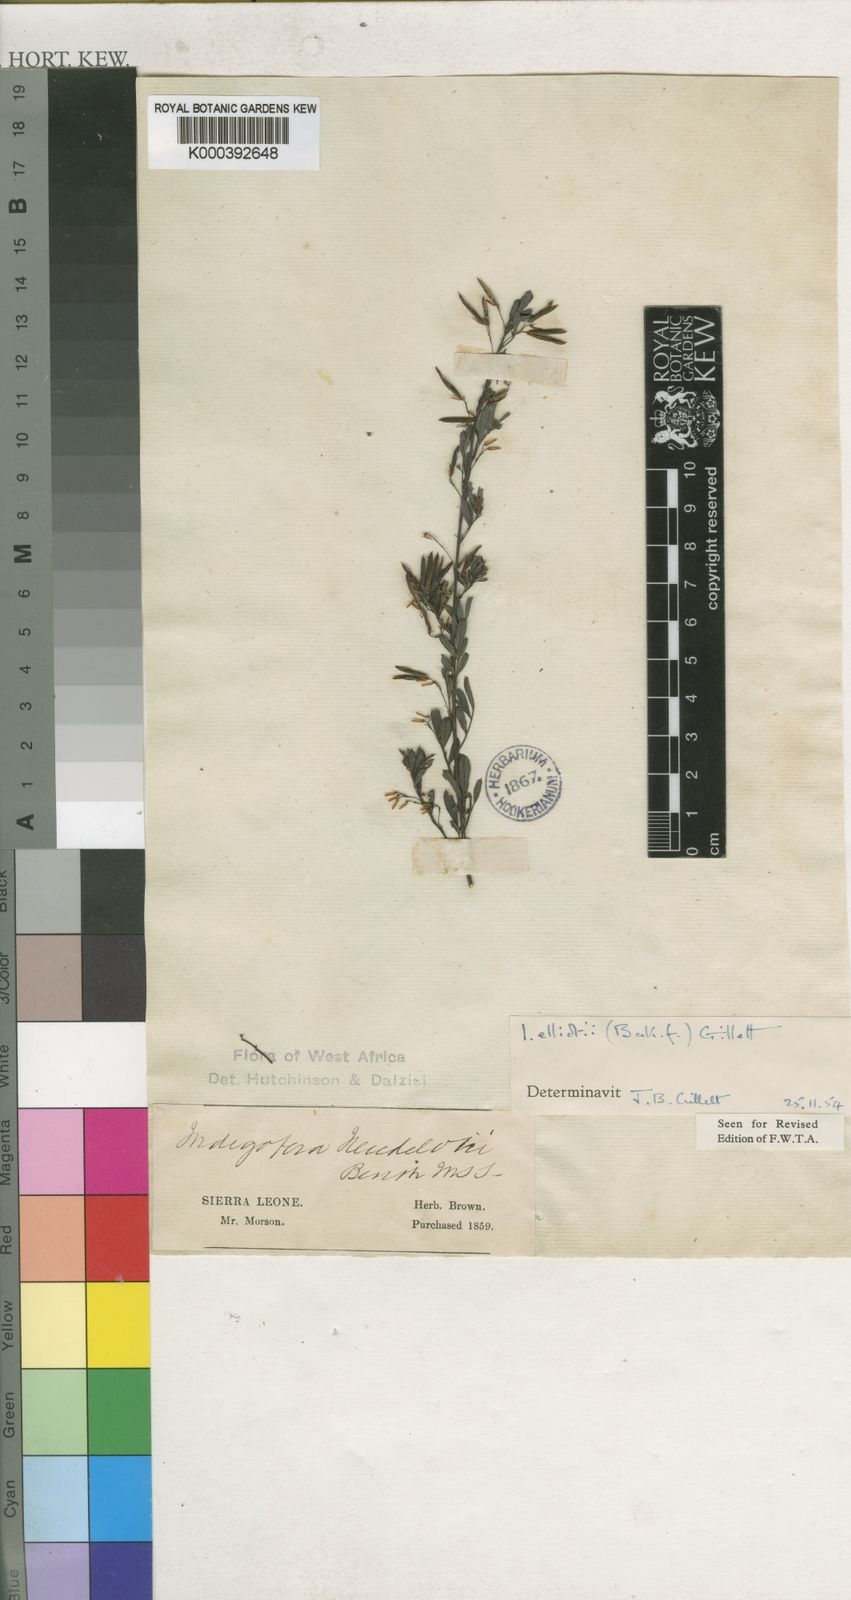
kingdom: Plantae
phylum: Tracheophyta
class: Magnoliopsida
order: Fabales
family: Fabaceae
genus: Indigofera
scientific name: Indigofera elliotii
